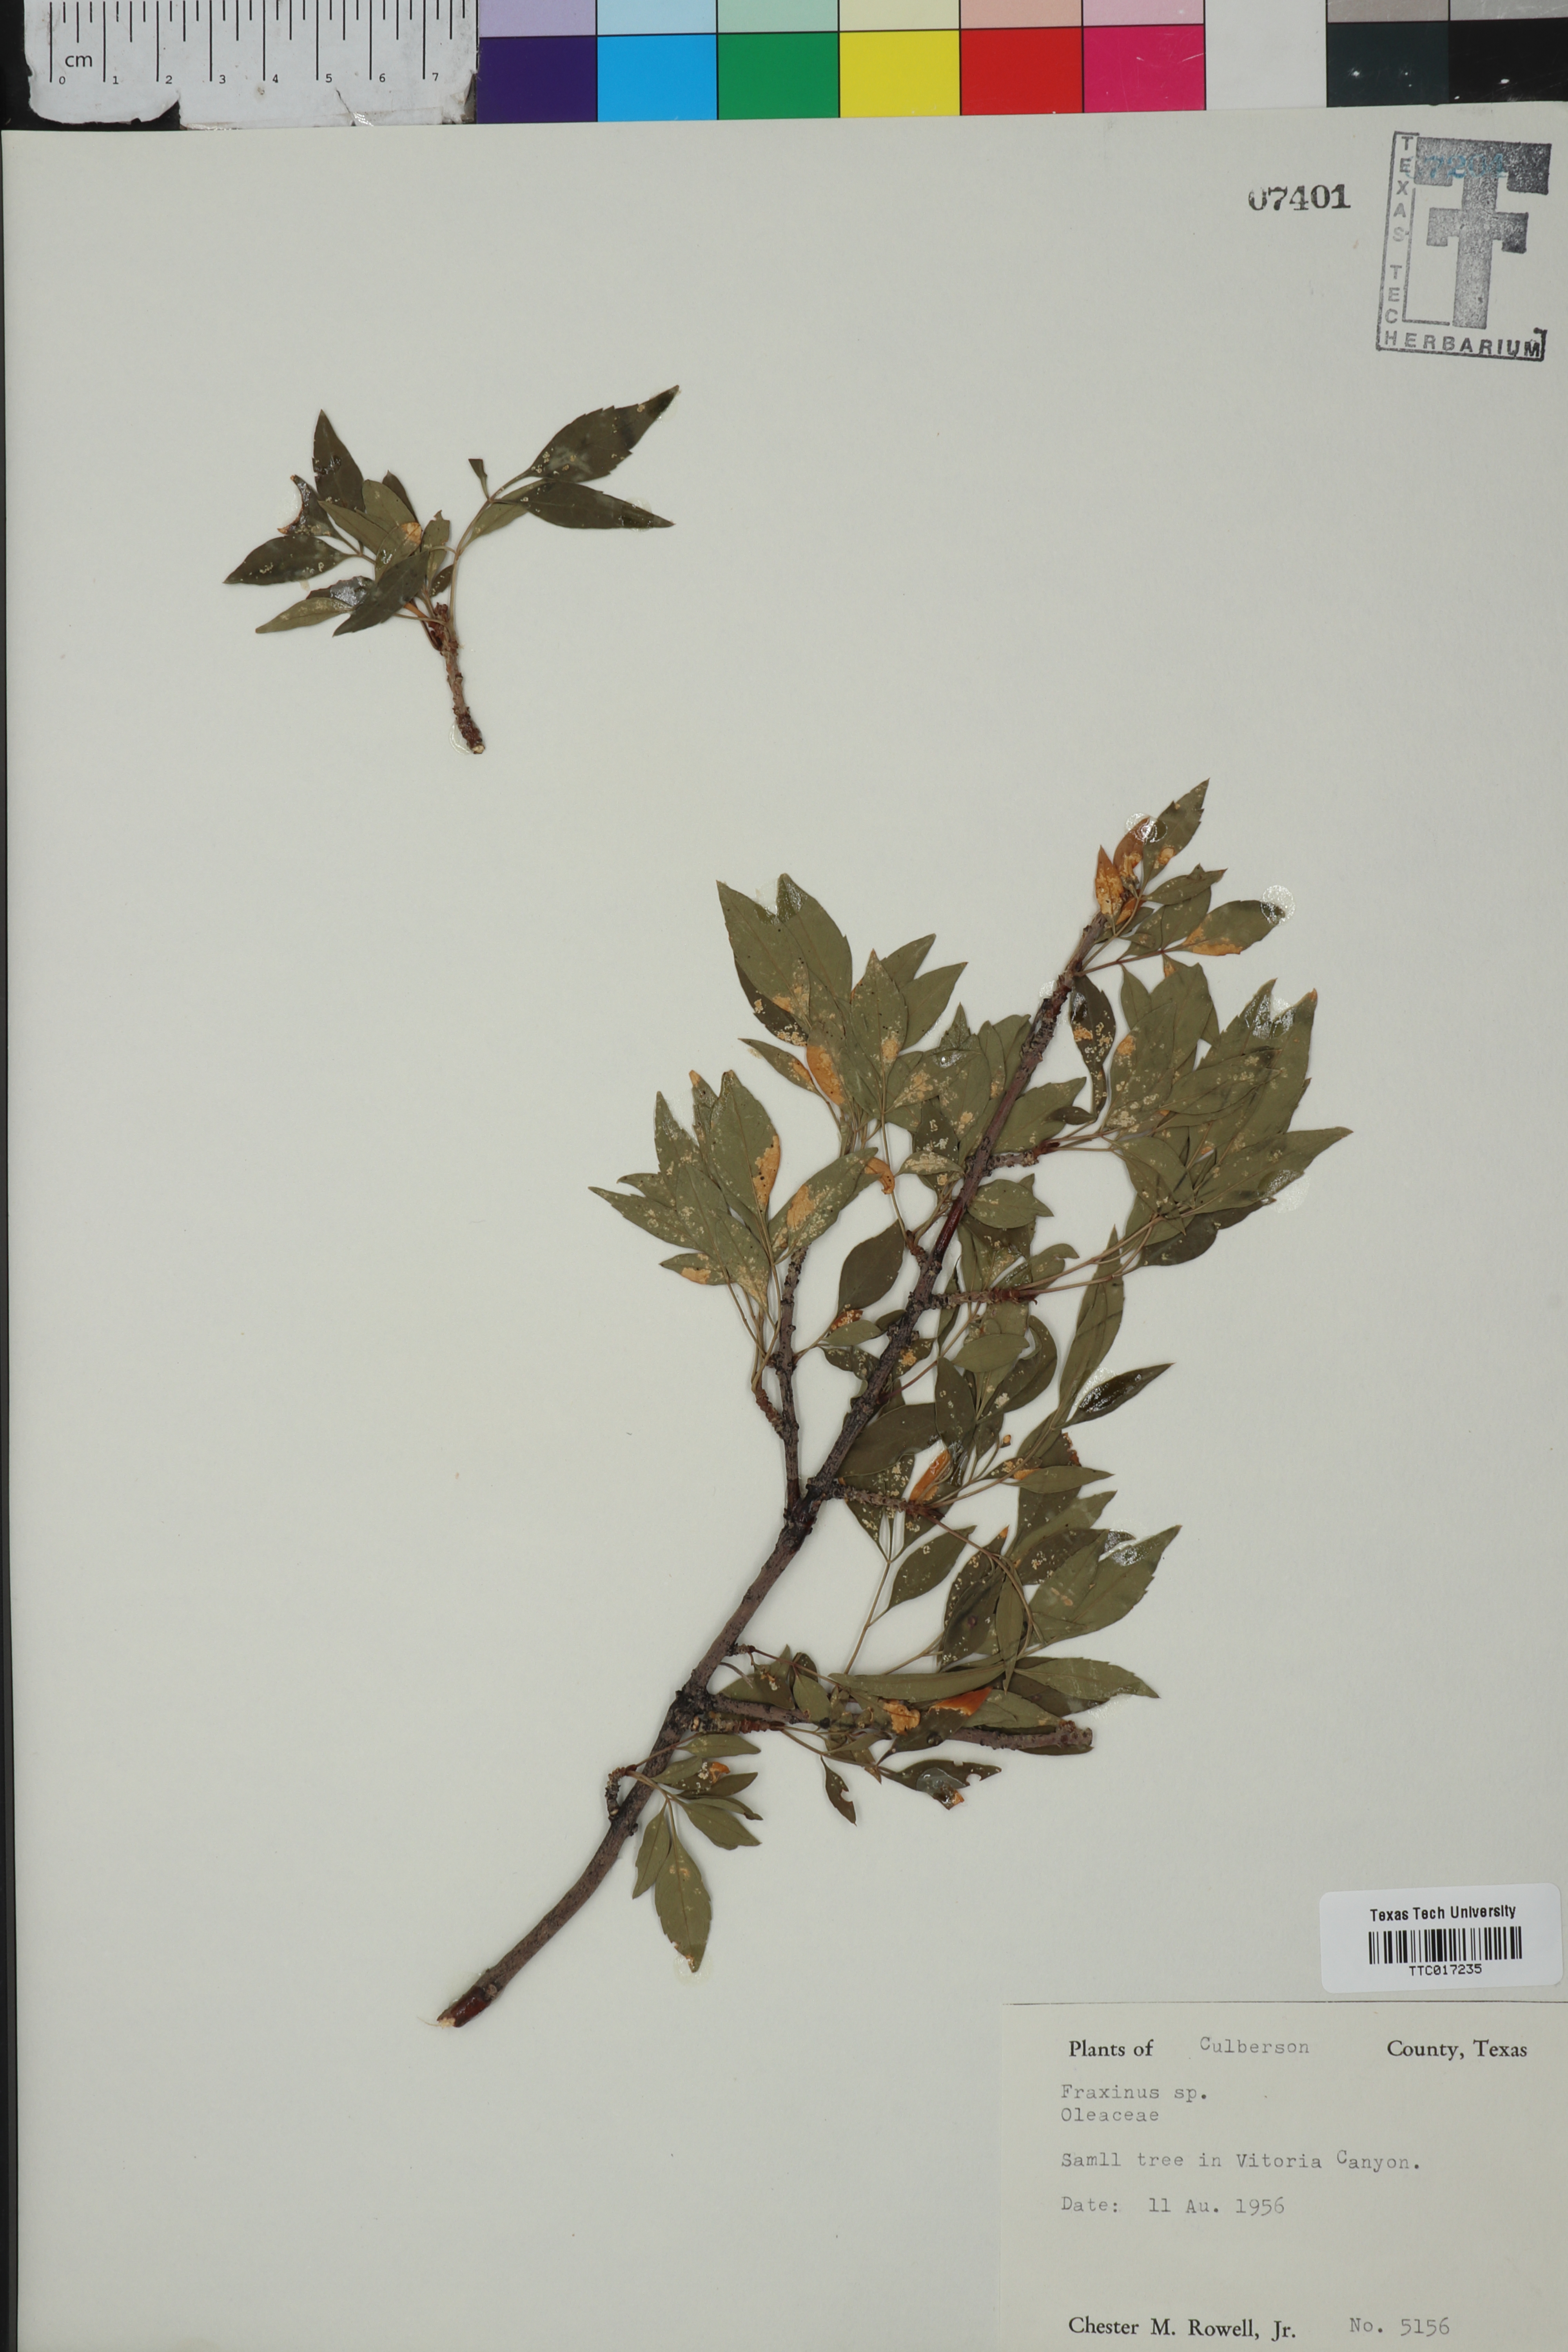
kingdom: Plantae
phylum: Tracheophyta
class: Magnoliopsida
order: Lamiales
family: Oleaceae
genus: Fraxinus
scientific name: Fraxinus
